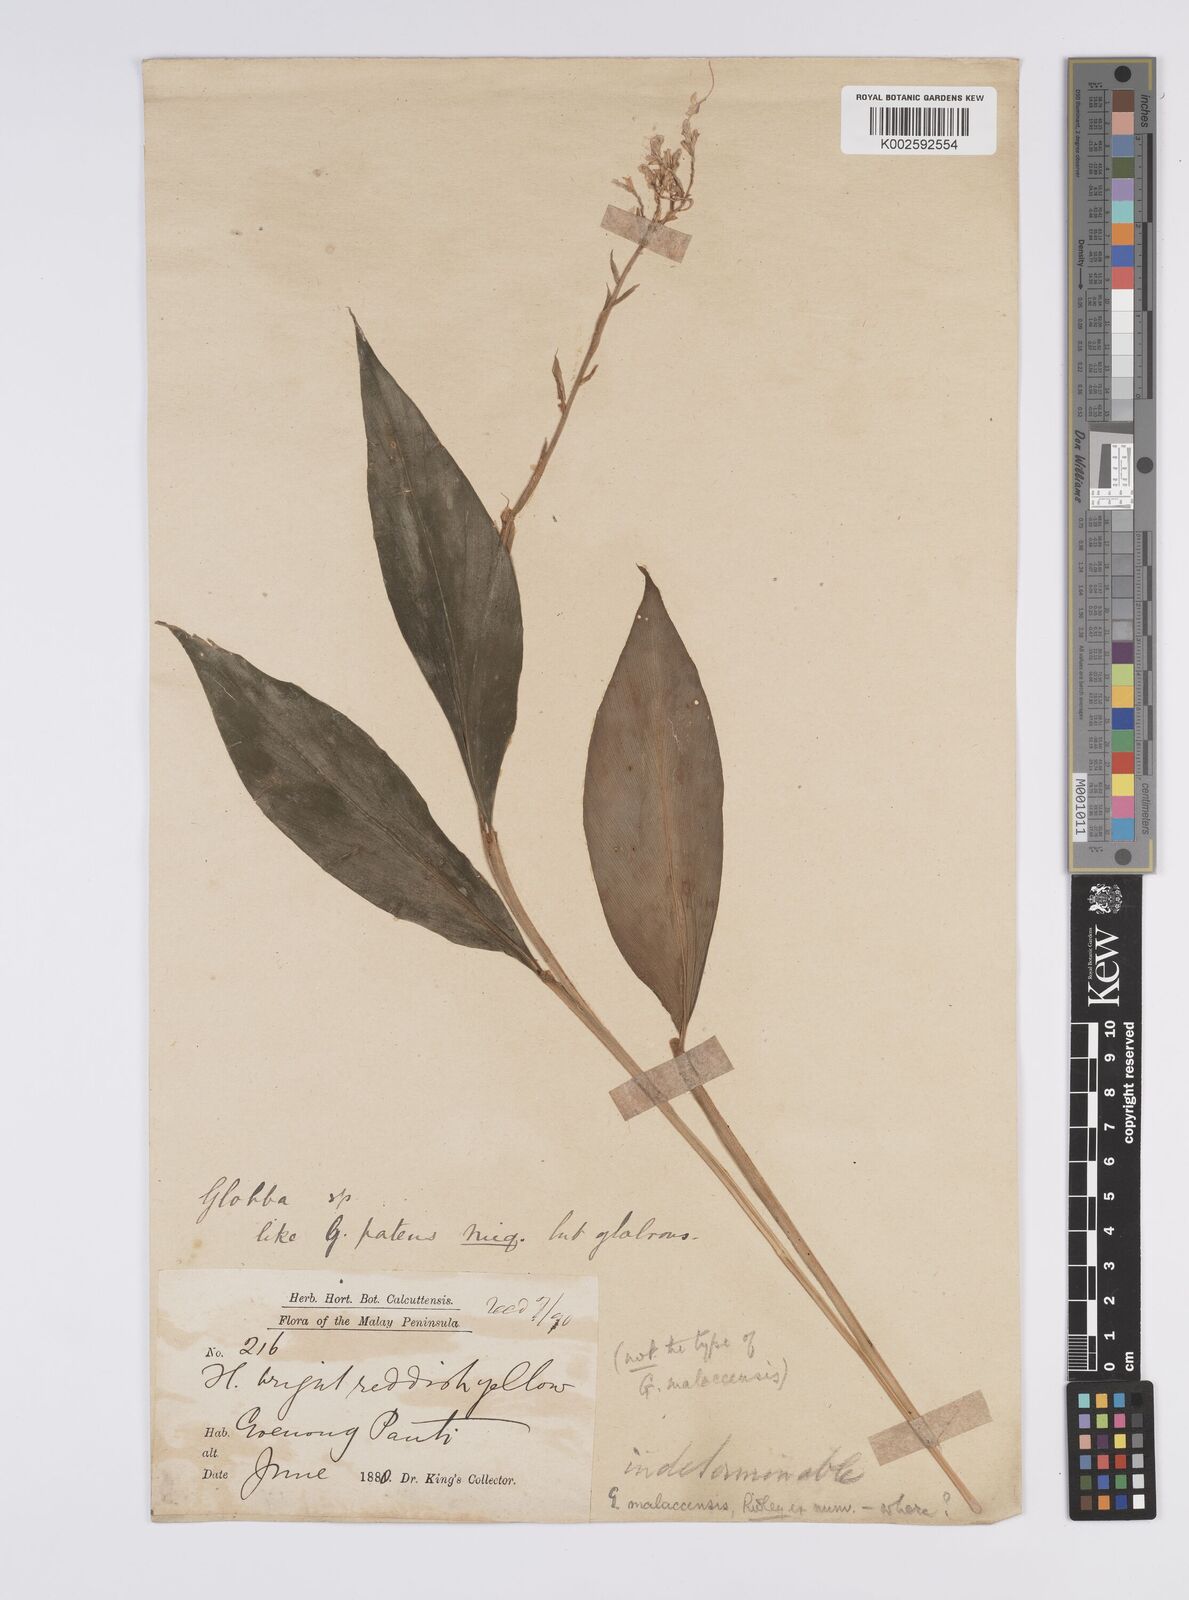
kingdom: Plantae
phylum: Tracheophyta
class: Liliopsida
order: Zingiberales
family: Zingiberaceae
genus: Globba
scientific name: Globba variabilis
